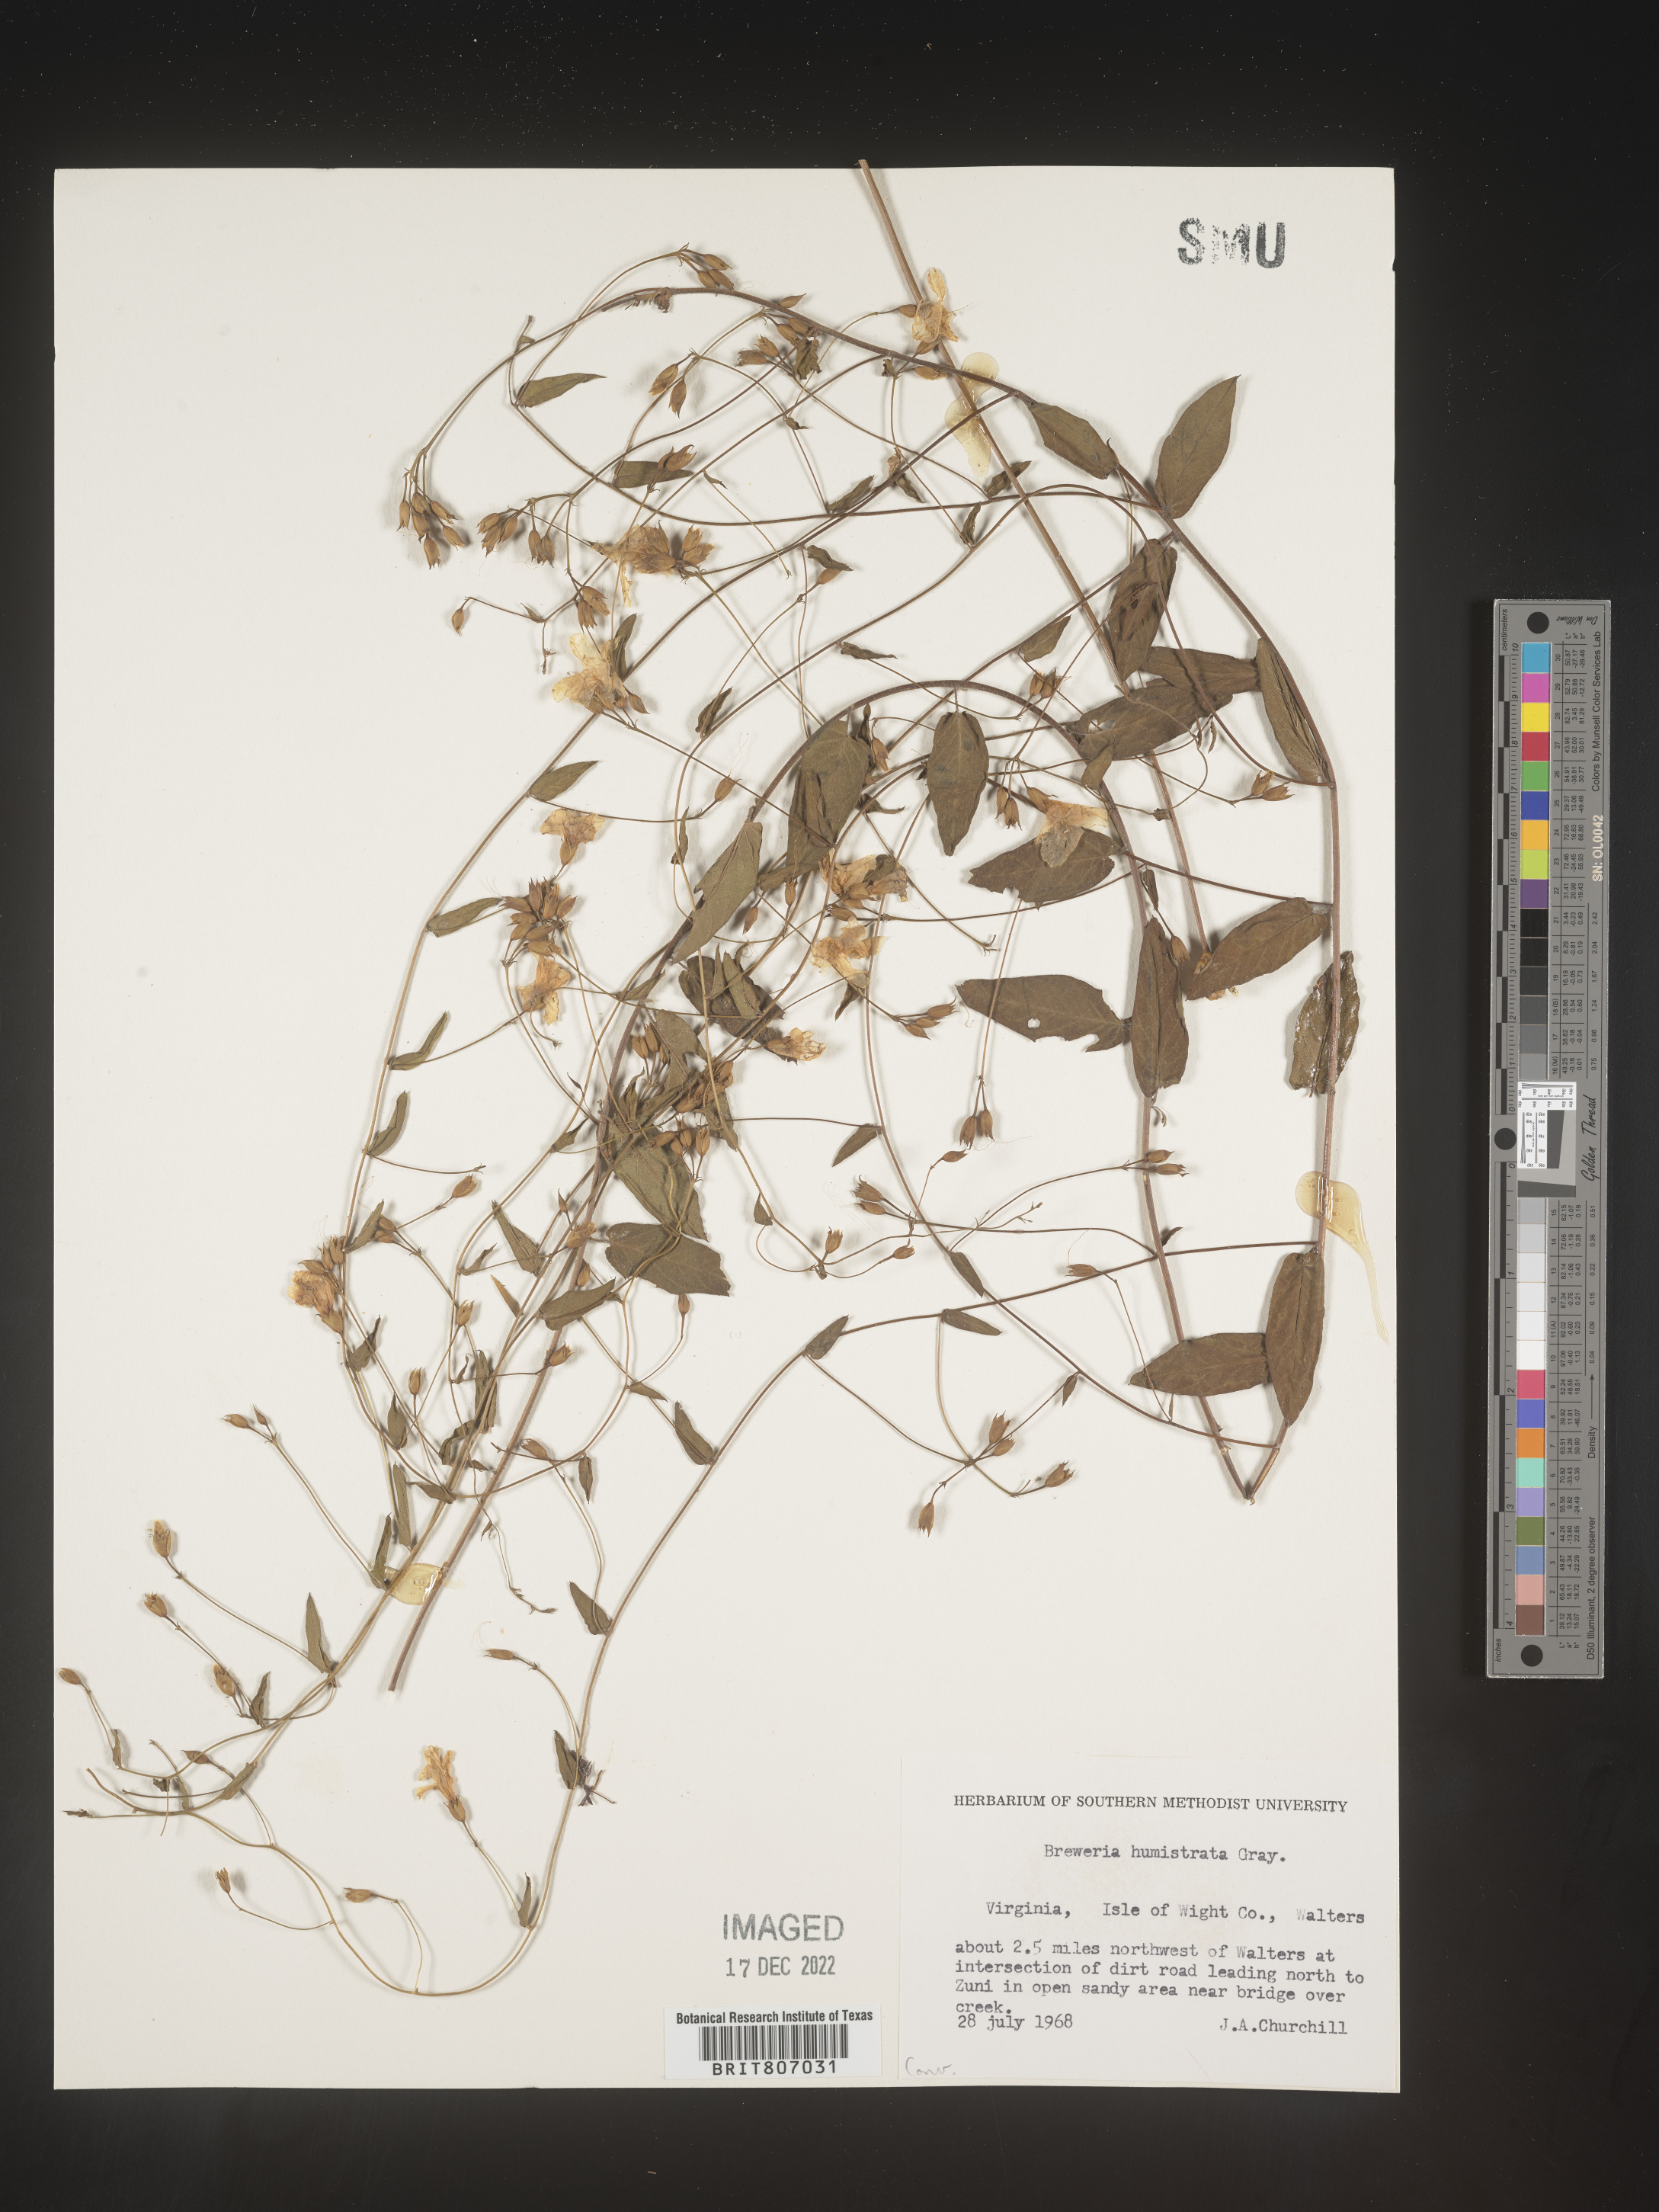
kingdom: Plantae
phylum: Tracheophyta
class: Magnoliopsida
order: Solanales
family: Convolvulaceae
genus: Stylisma
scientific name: Stylisma humistrata
